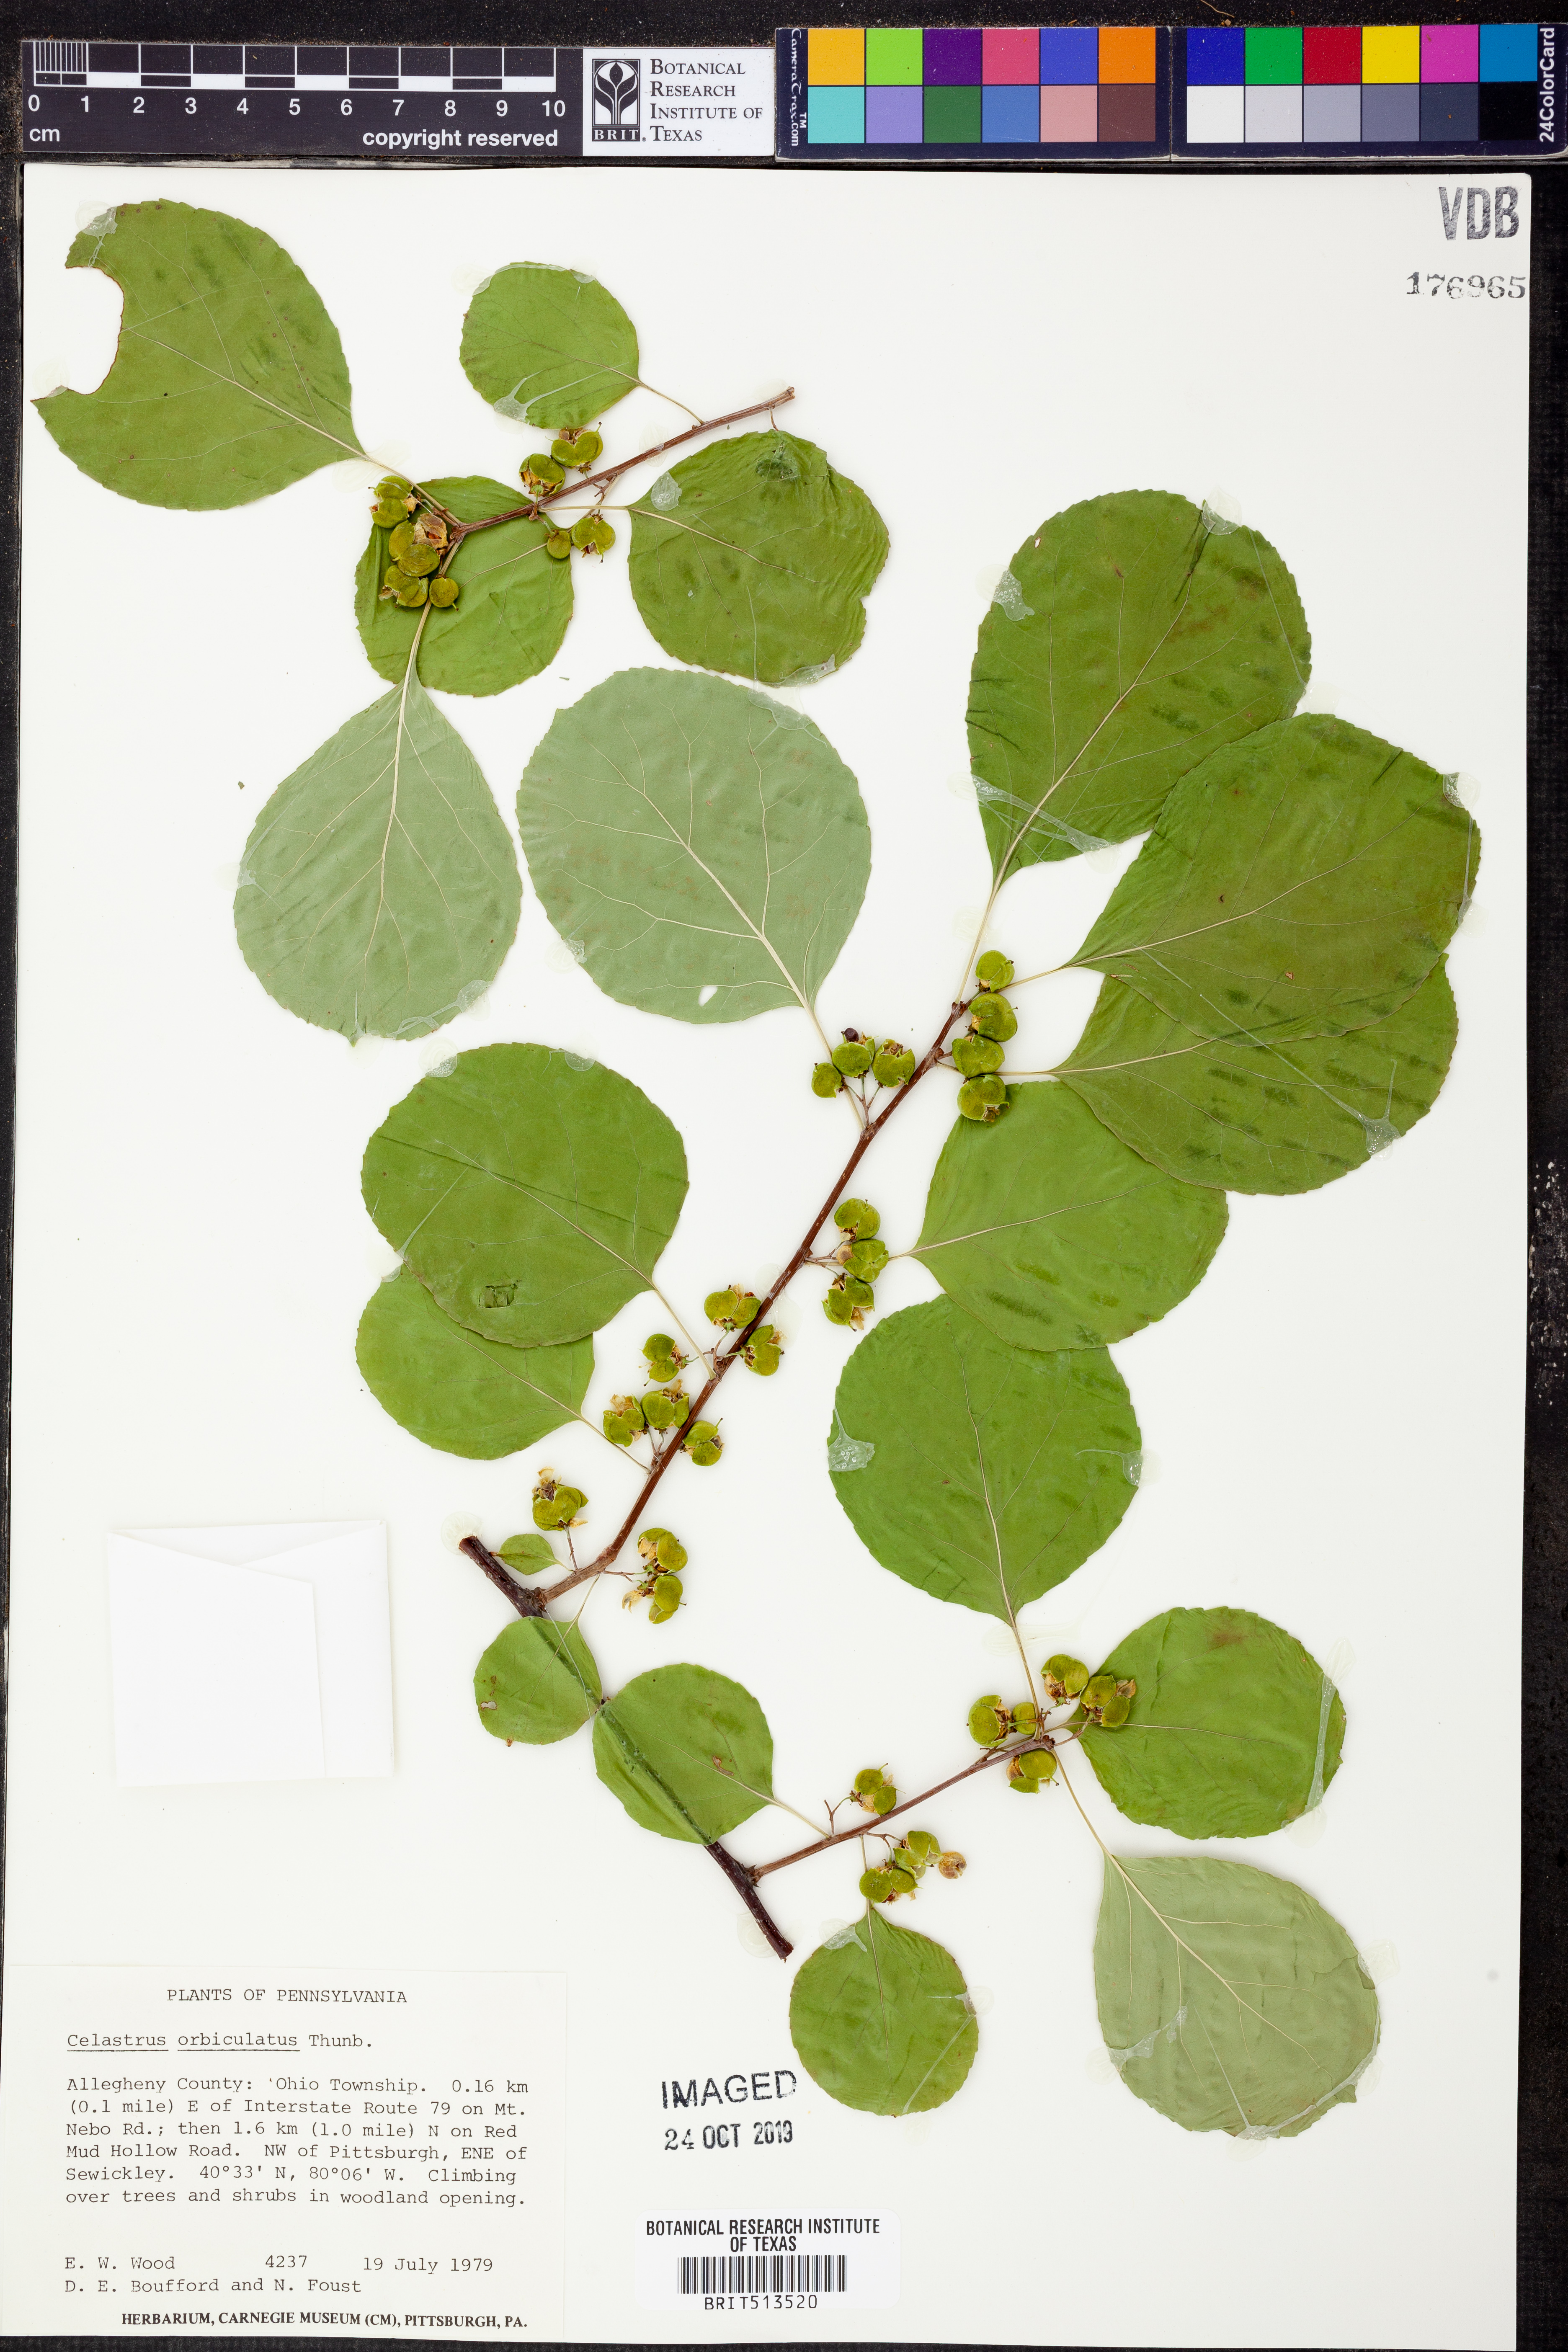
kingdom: Plantae
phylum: Tracheophyta
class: Magnoliopsida
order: Celastrales
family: Celastraceae
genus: Celastrus
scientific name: Celastrus orbiculatus
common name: Oriental bittersweet
